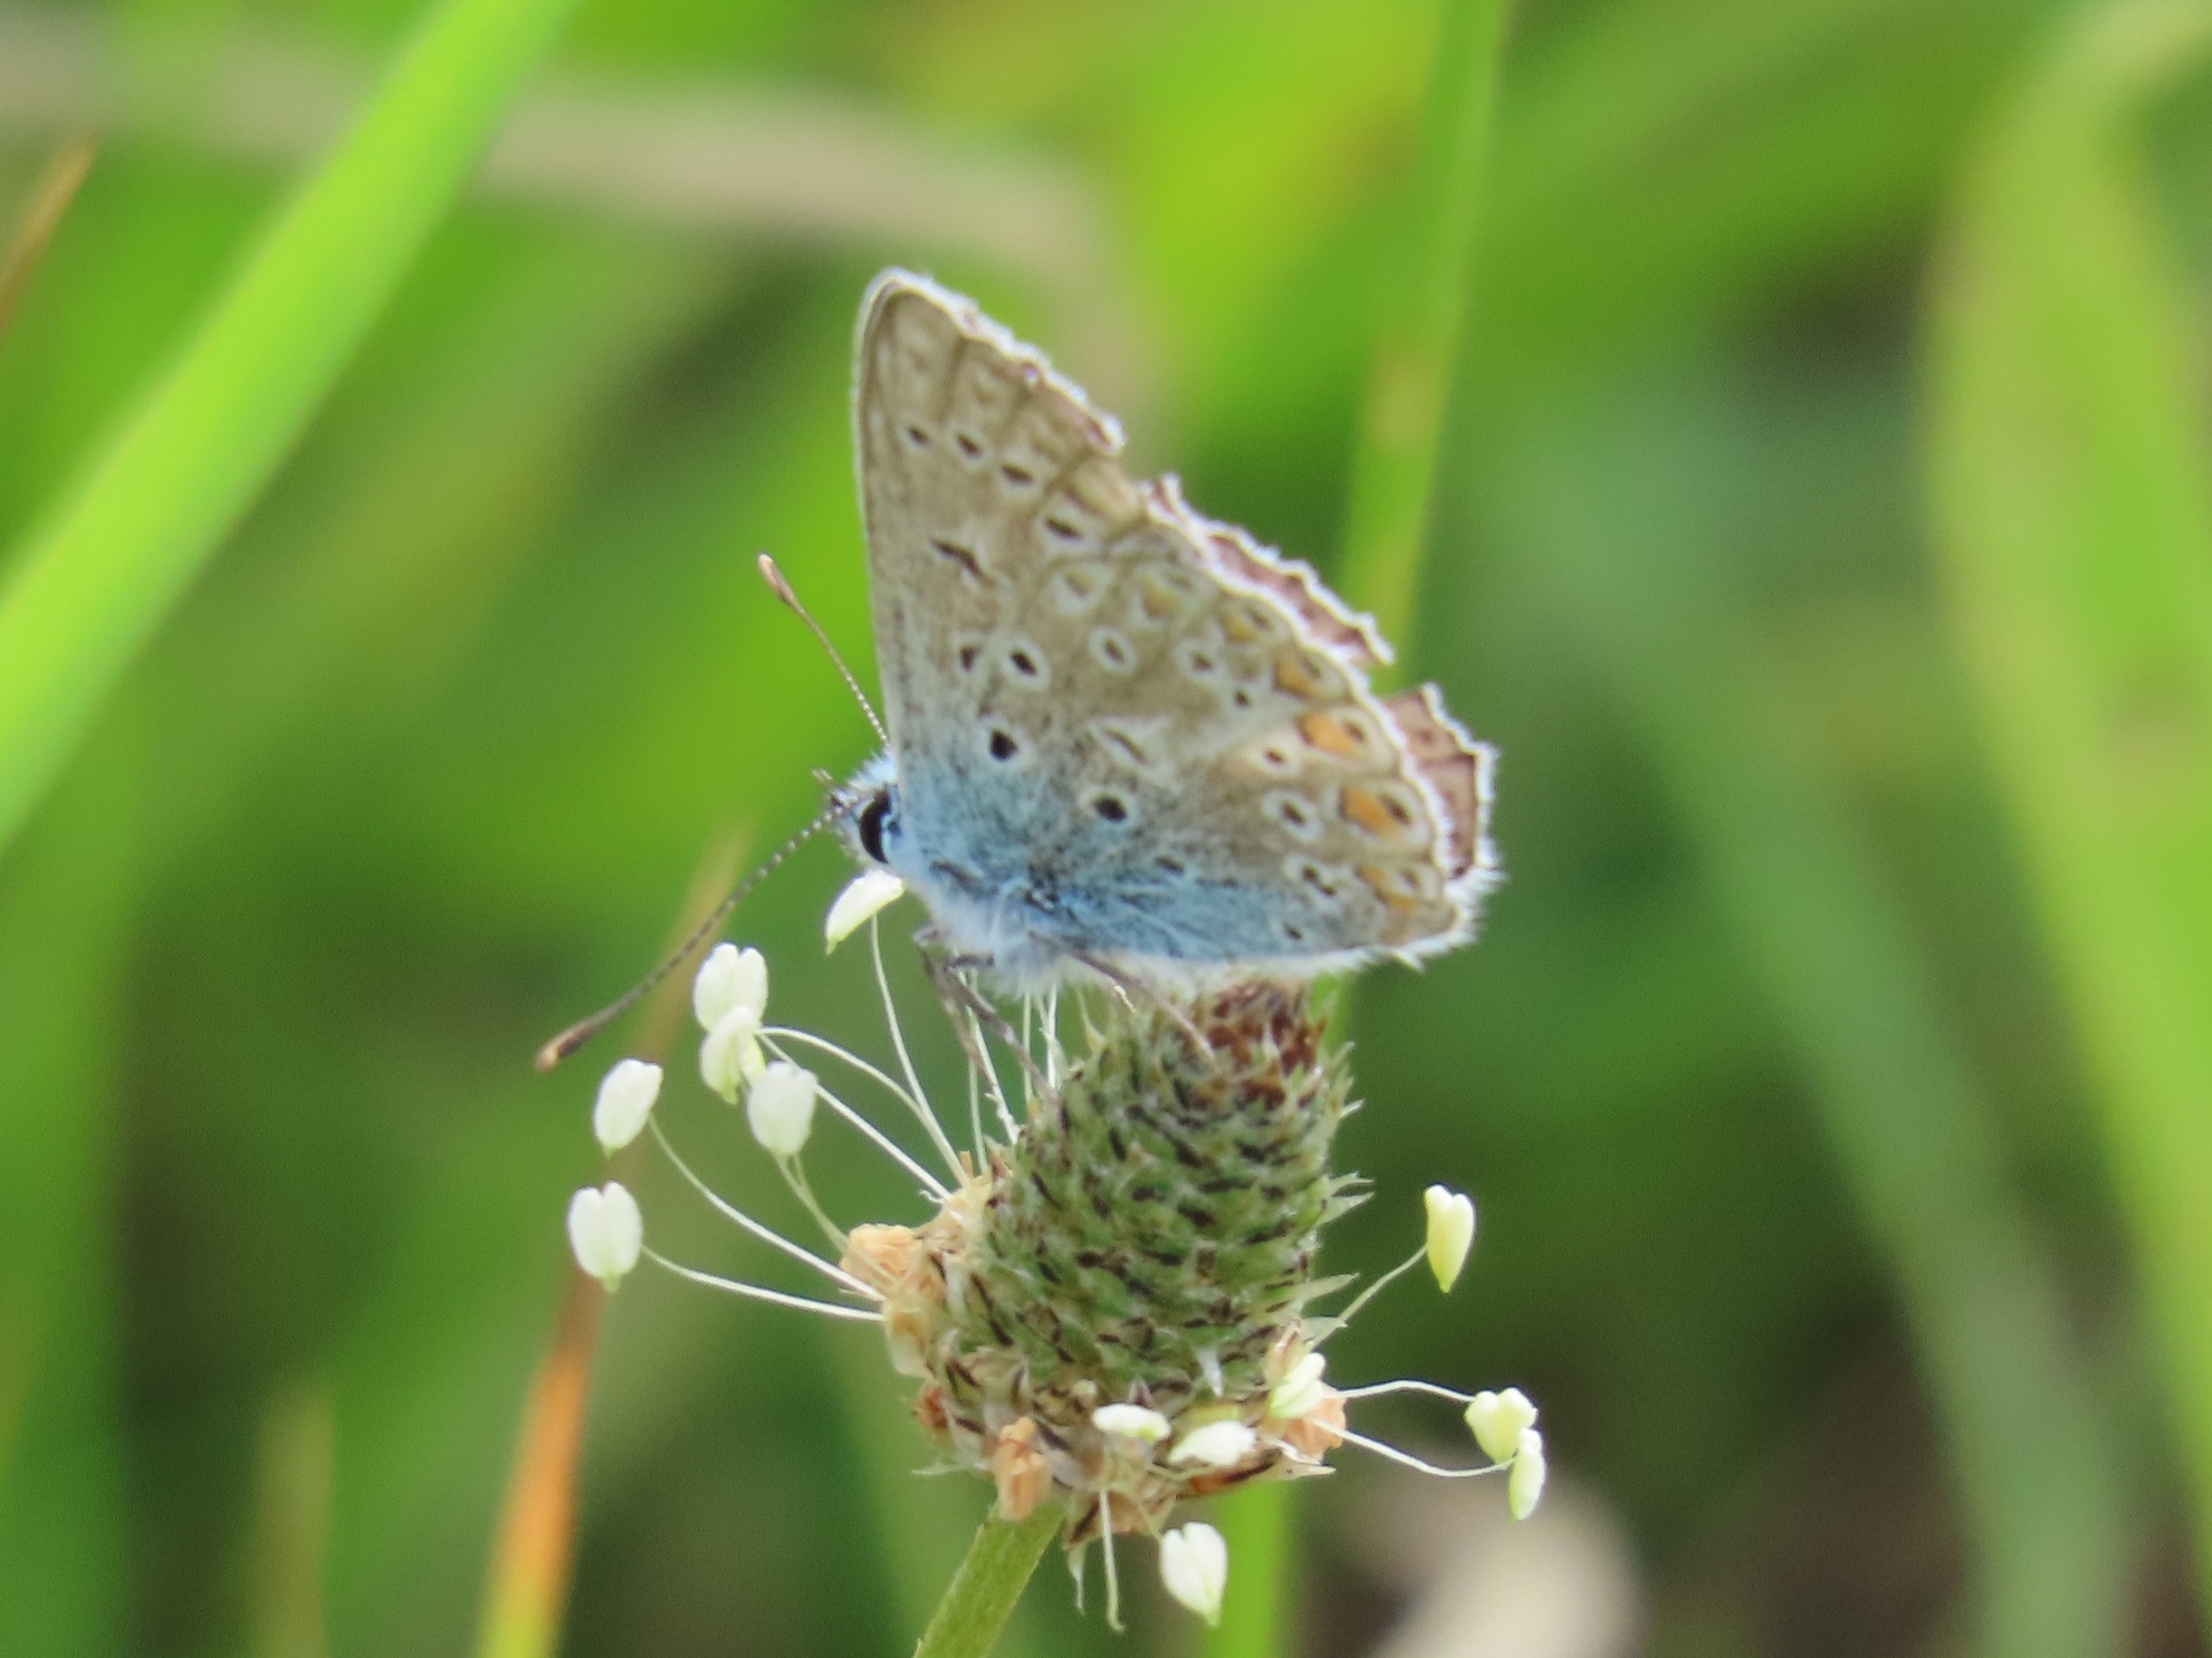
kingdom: Animalia
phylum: Arthropoda
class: Insecta
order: Lepidoptera
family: Lycaenidae
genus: Polyommatus
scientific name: Polyommatus icarus
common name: Almindelig blåfugl
